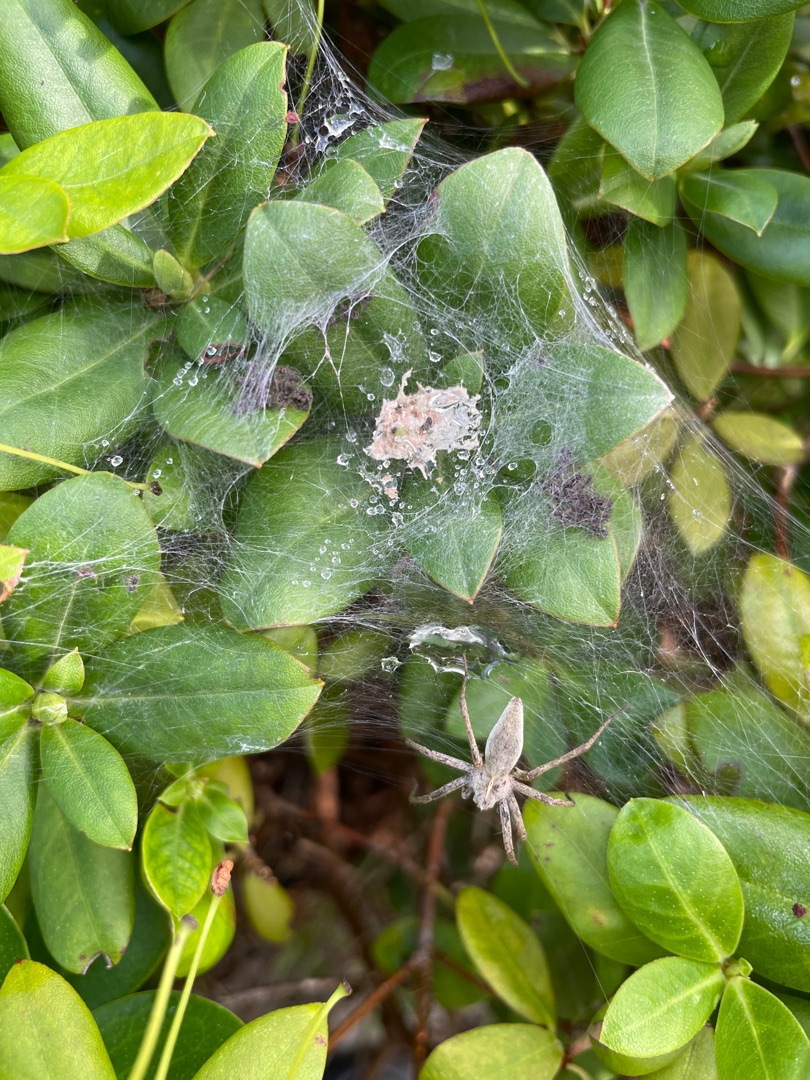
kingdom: Animalia
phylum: Arthropoda
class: Arachnida
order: Araneae
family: Pisauridae
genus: Pisaura
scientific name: Pisaura mirabilis
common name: Almindelig rovedderkop
